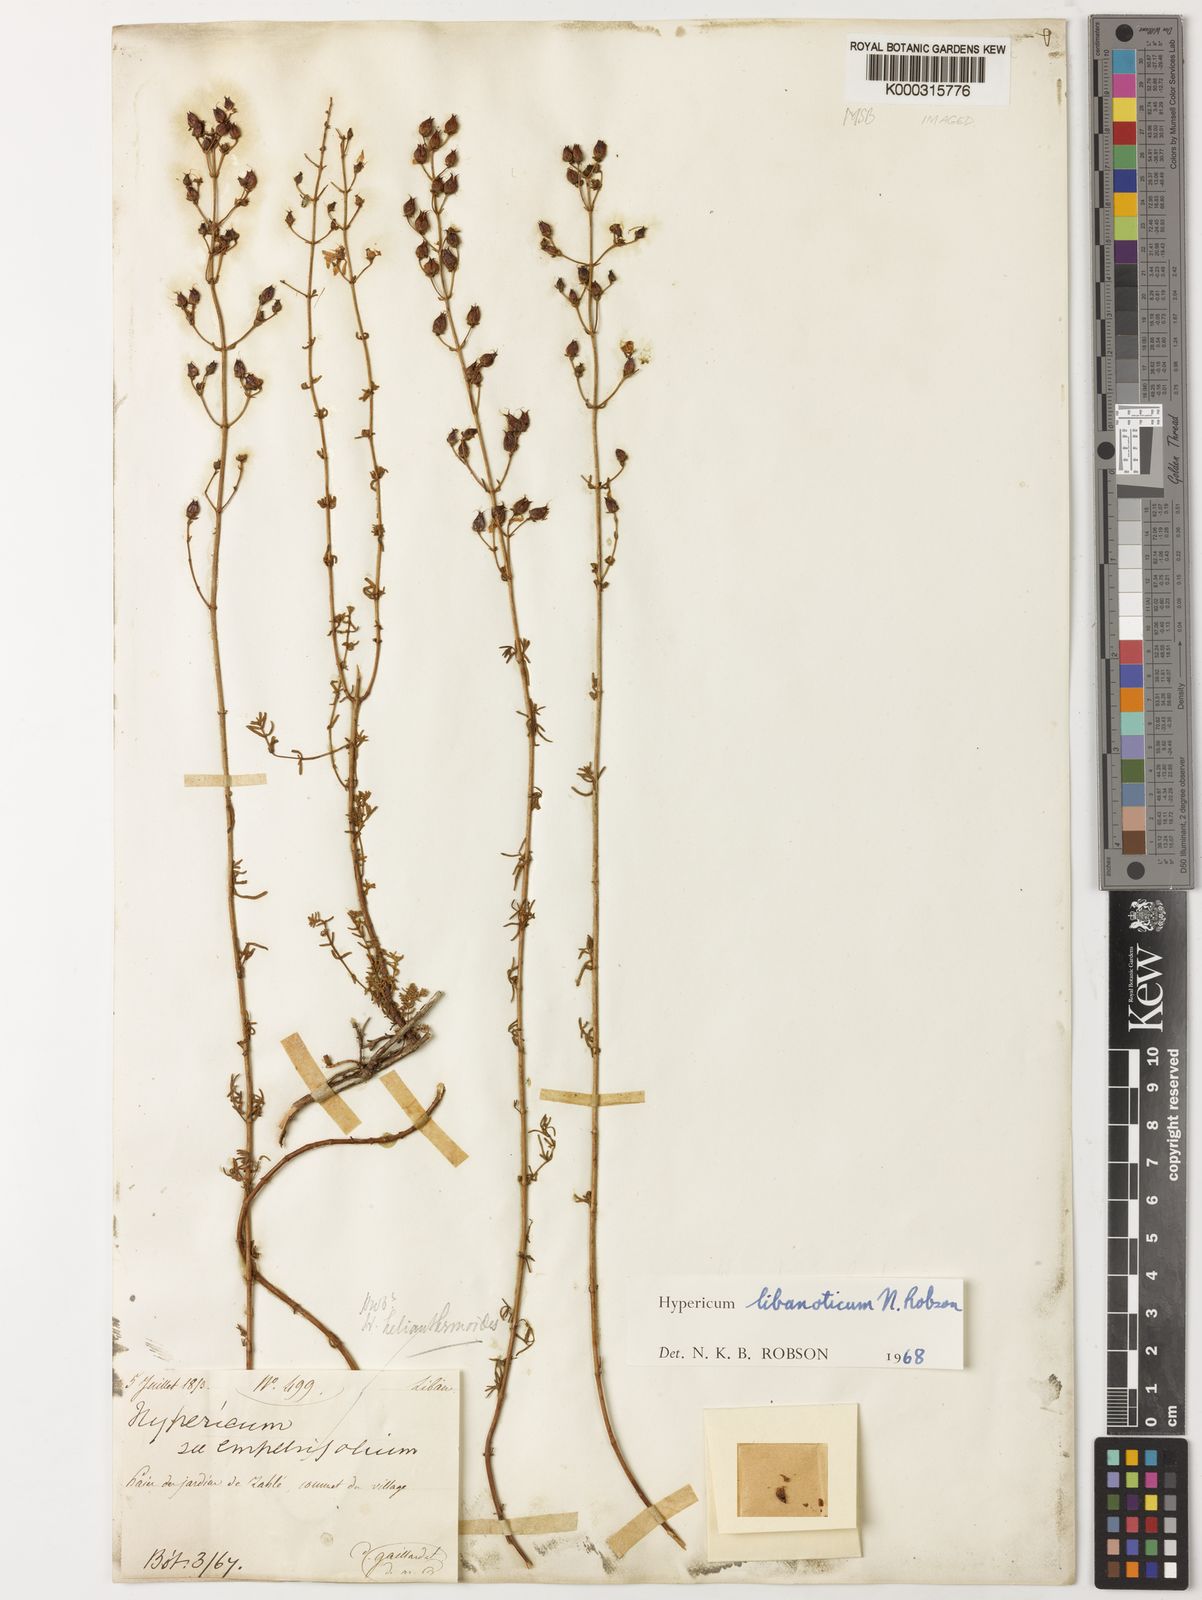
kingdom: Plantae
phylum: Tracheophyta
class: Magnoliopsida
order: Malpighiales
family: Hypericaceae
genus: Hypericum
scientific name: Hypericum libanoticum
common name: Lebanon saint john’s wort
